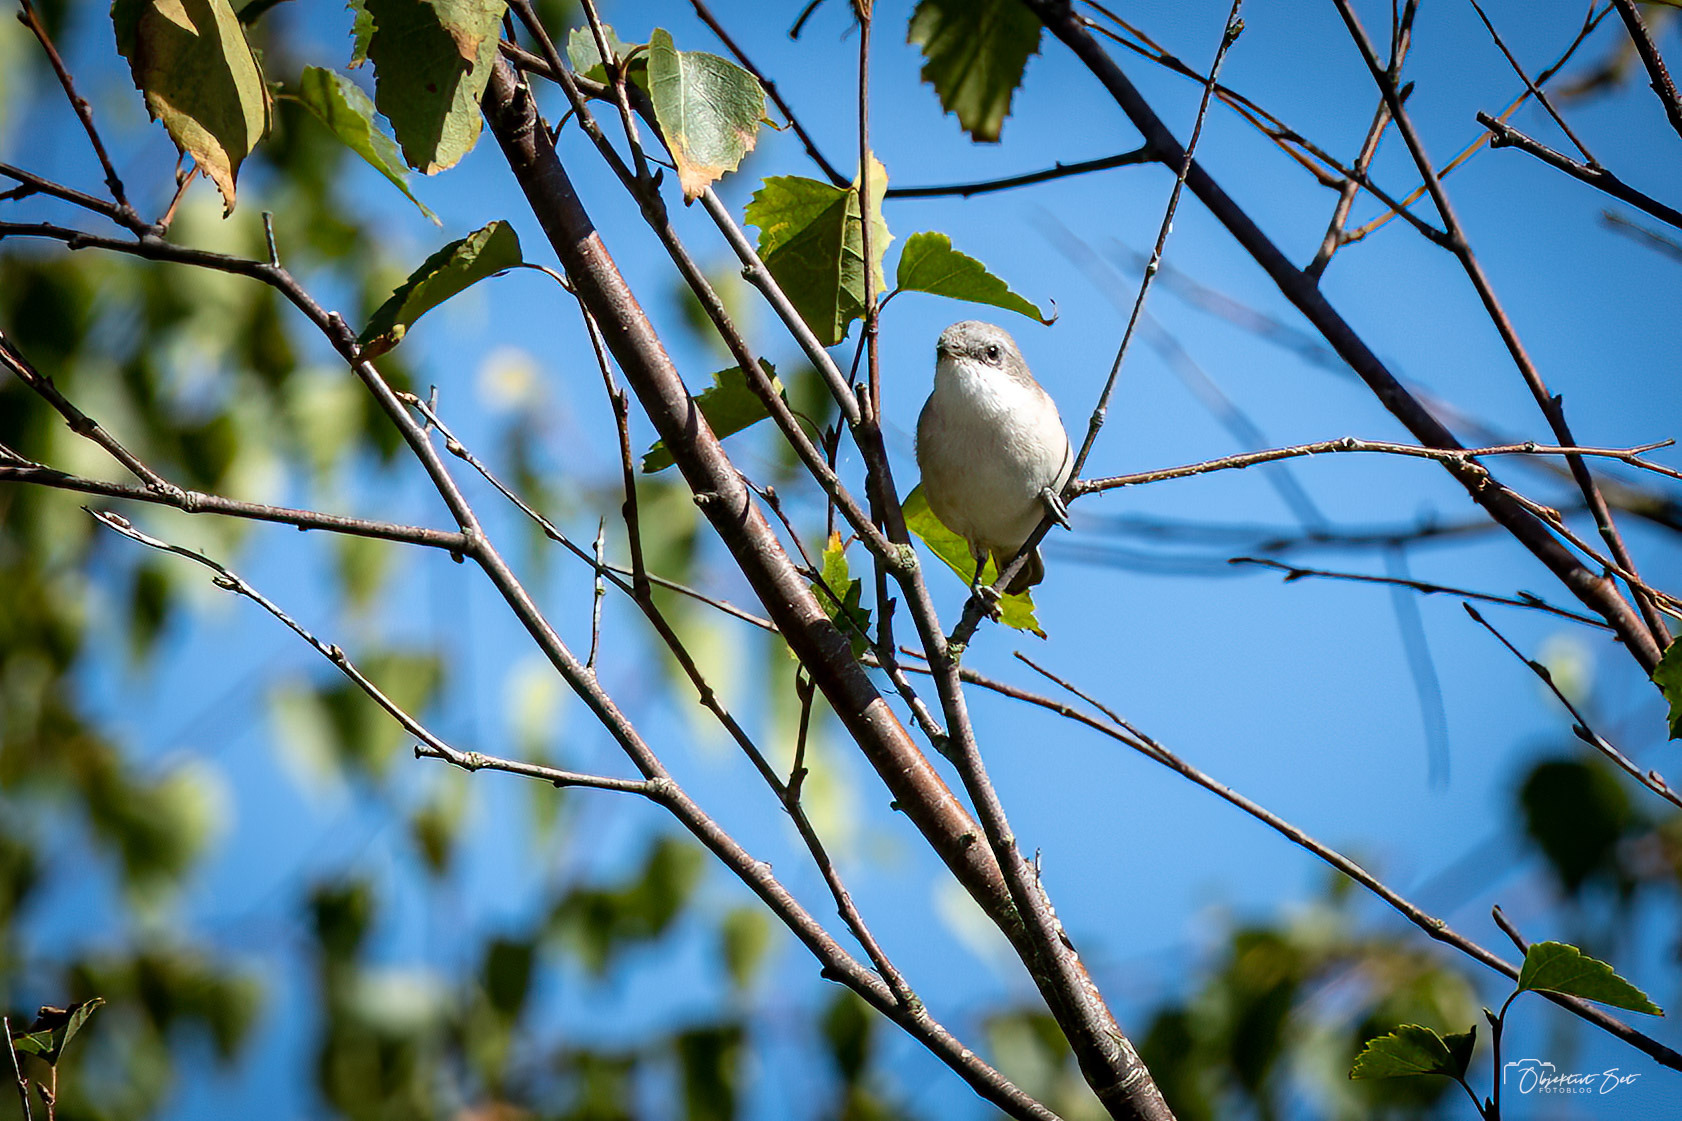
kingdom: Animalia
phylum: Chordata
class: Aves
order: Passeriformes
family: Sylviidae
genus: Sylvia
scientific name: Sylvia curruca
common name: Gærdesanger
